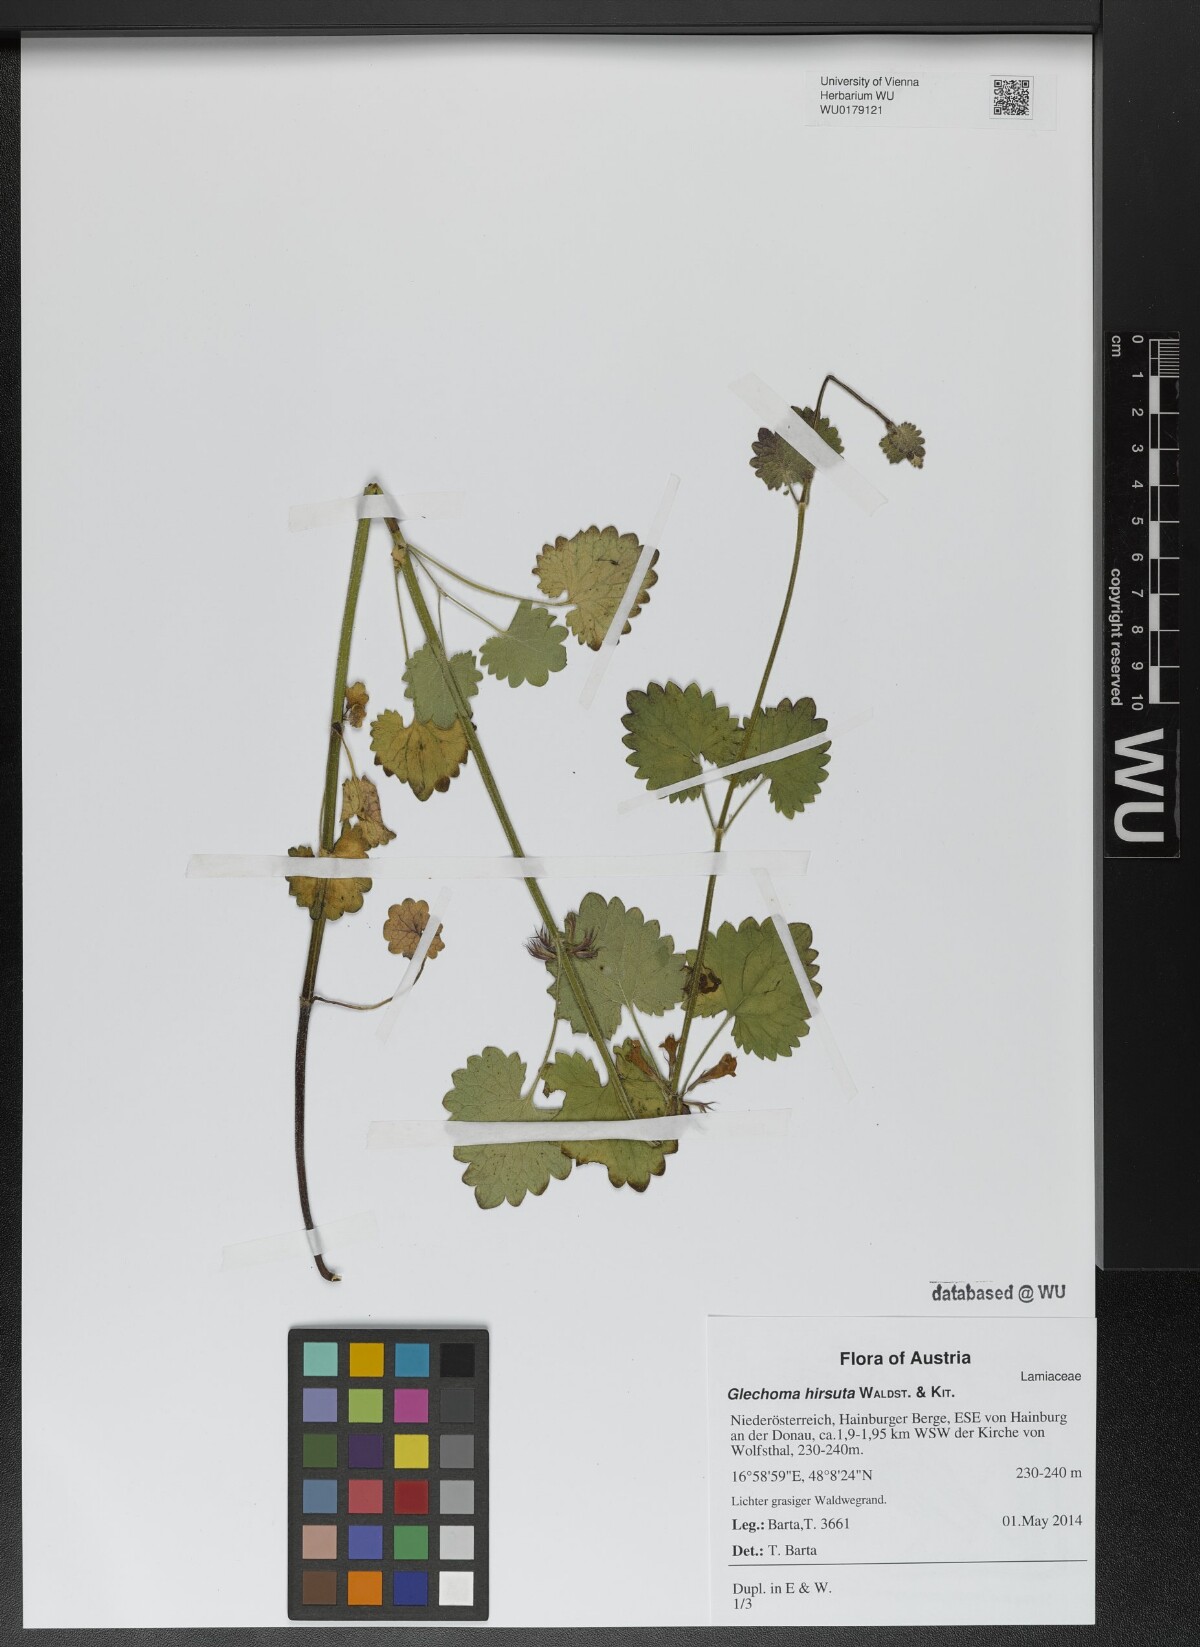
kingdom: Plantae
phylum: Tracheophyta
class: Magnoliopsida
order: Lamiales
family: Lamiaceae
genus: Glechoma
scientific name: Glechoma hirsuta
